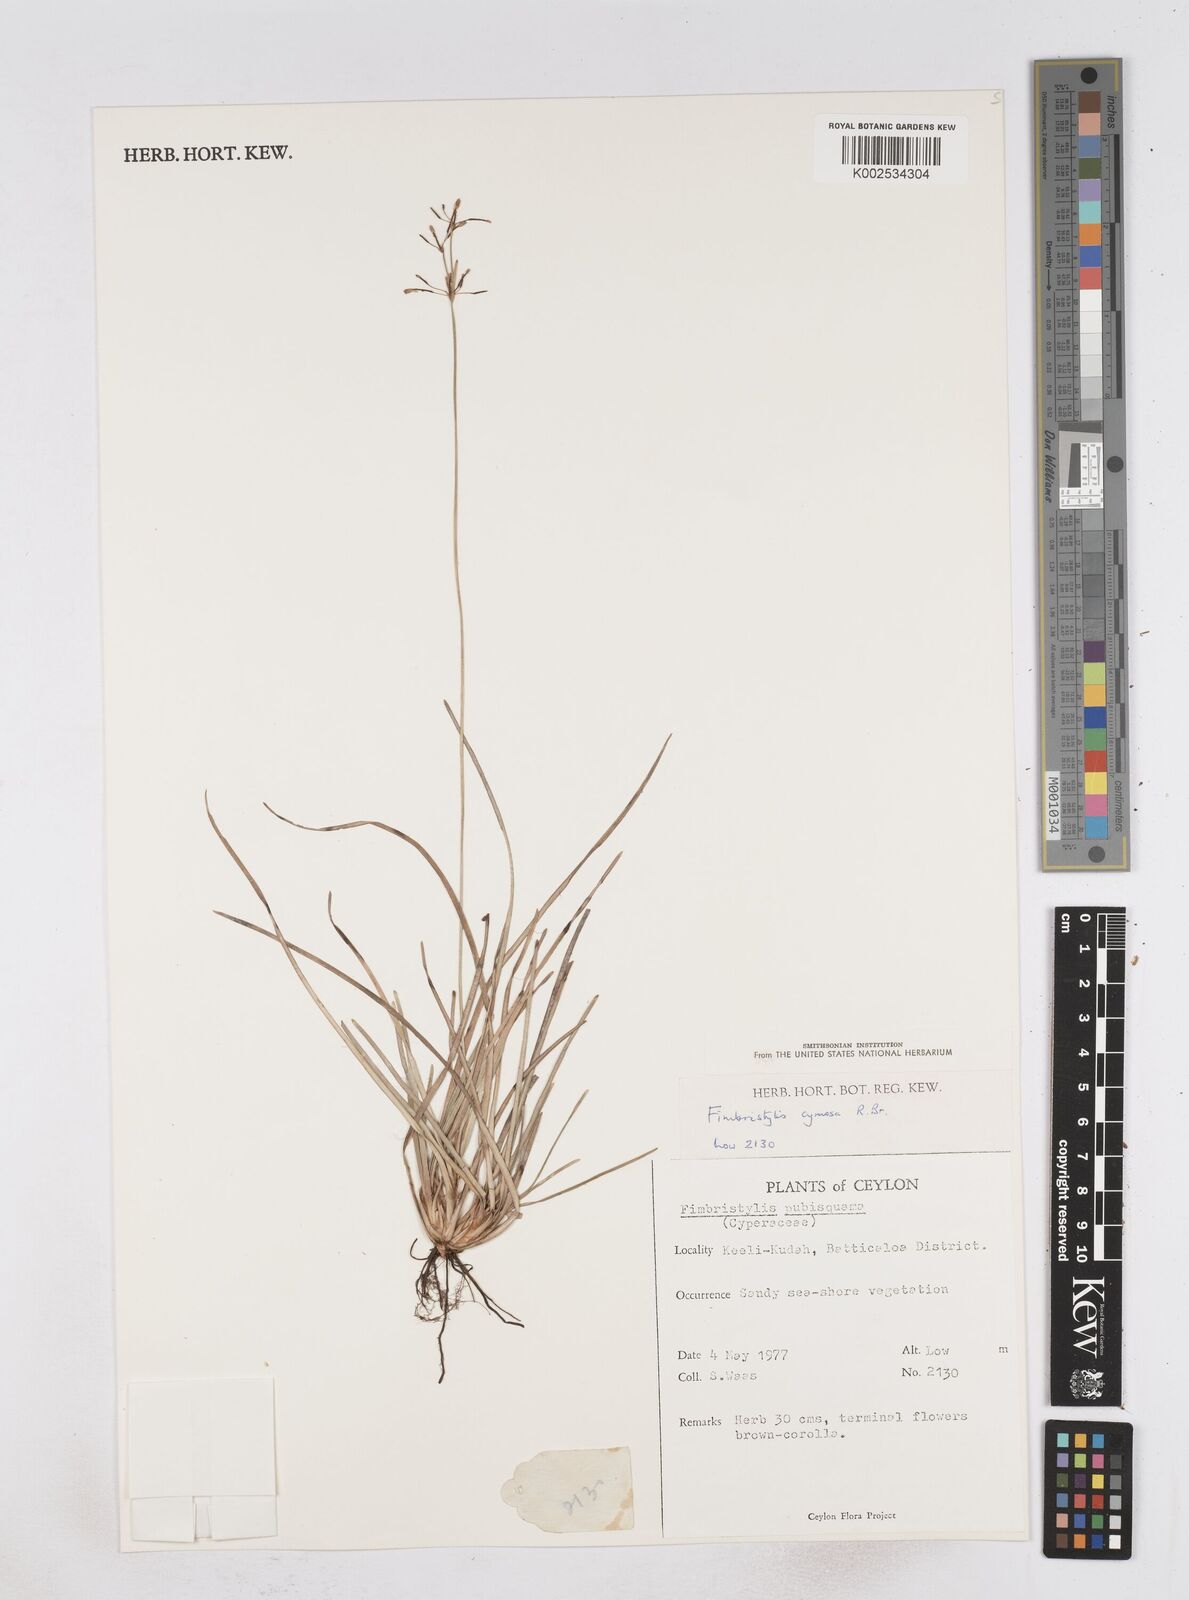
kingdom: Plantae
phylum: Tracheophyta
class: Liliopsida
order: Poales
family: Cyperaceae
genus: Fimbristylis
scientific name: Fimbristylis pubisquama
